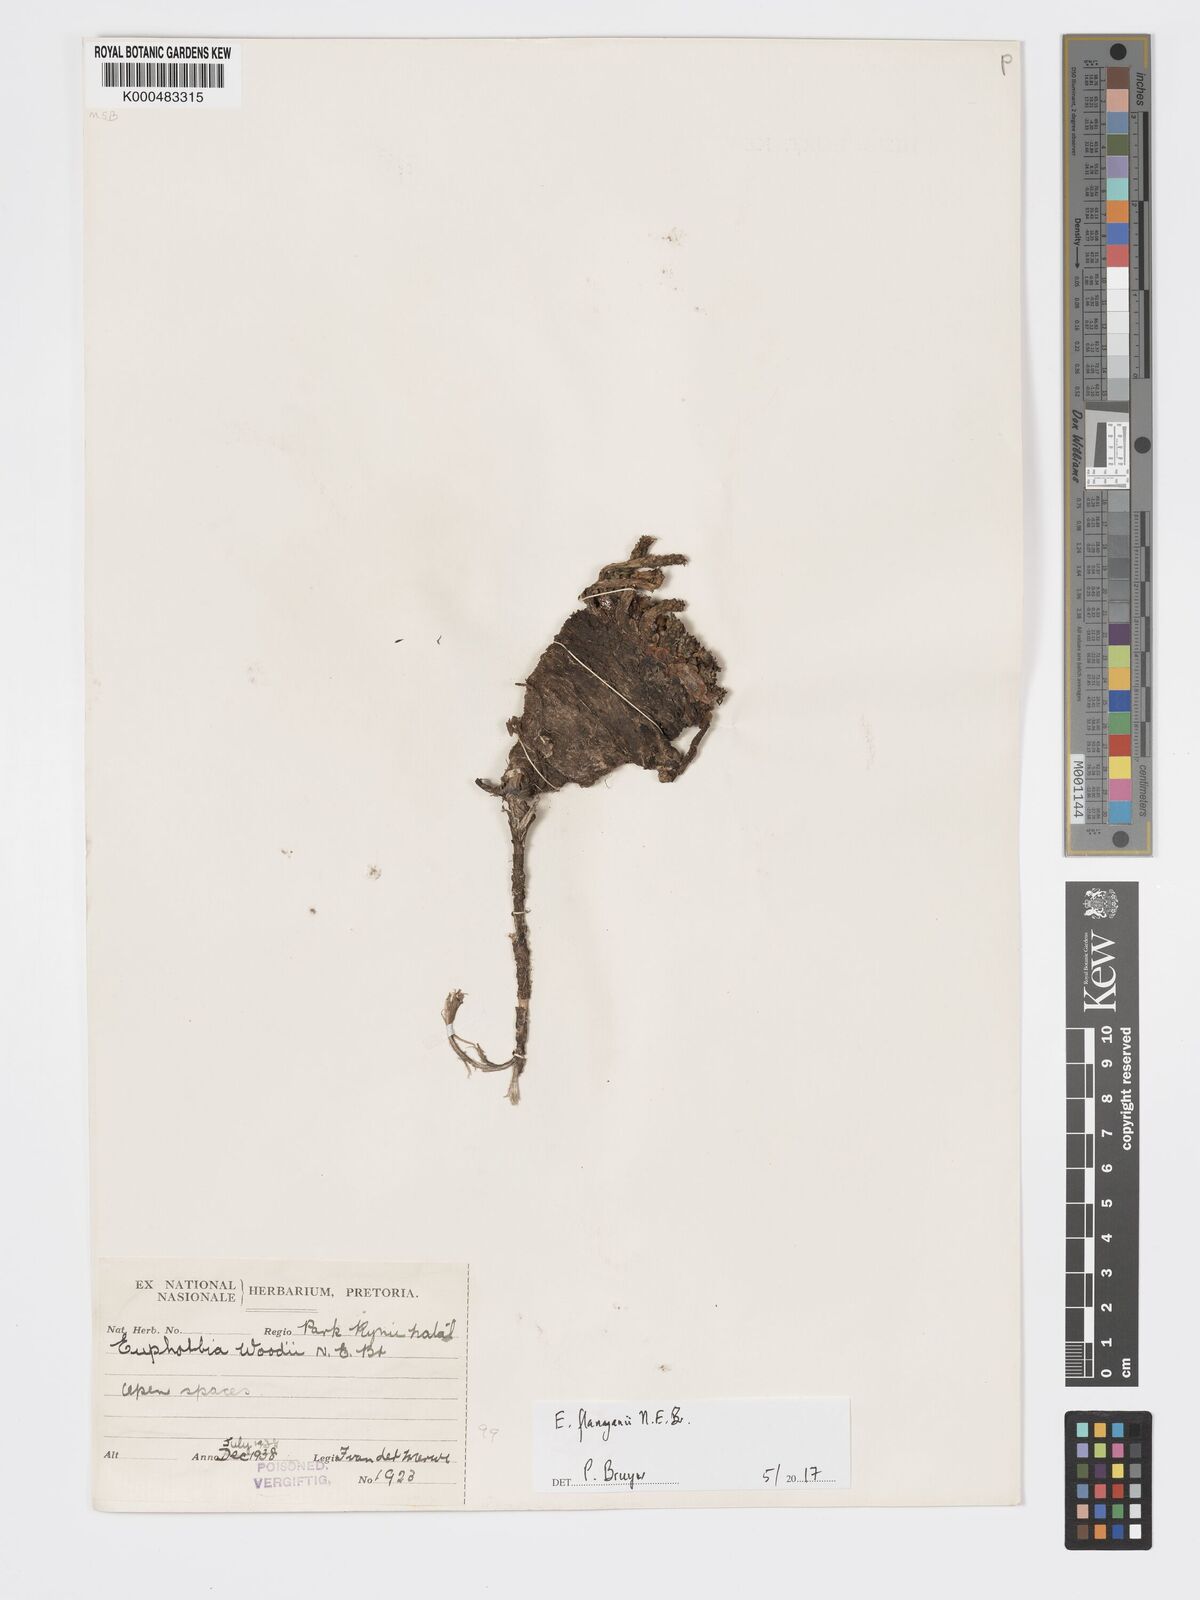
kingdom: Plantae
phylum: Tracheophyta
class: Magnoliopsida
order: Malpighiales
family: Euphorbiaceae
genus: Euphorbia
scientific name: Euphorbia woodii
